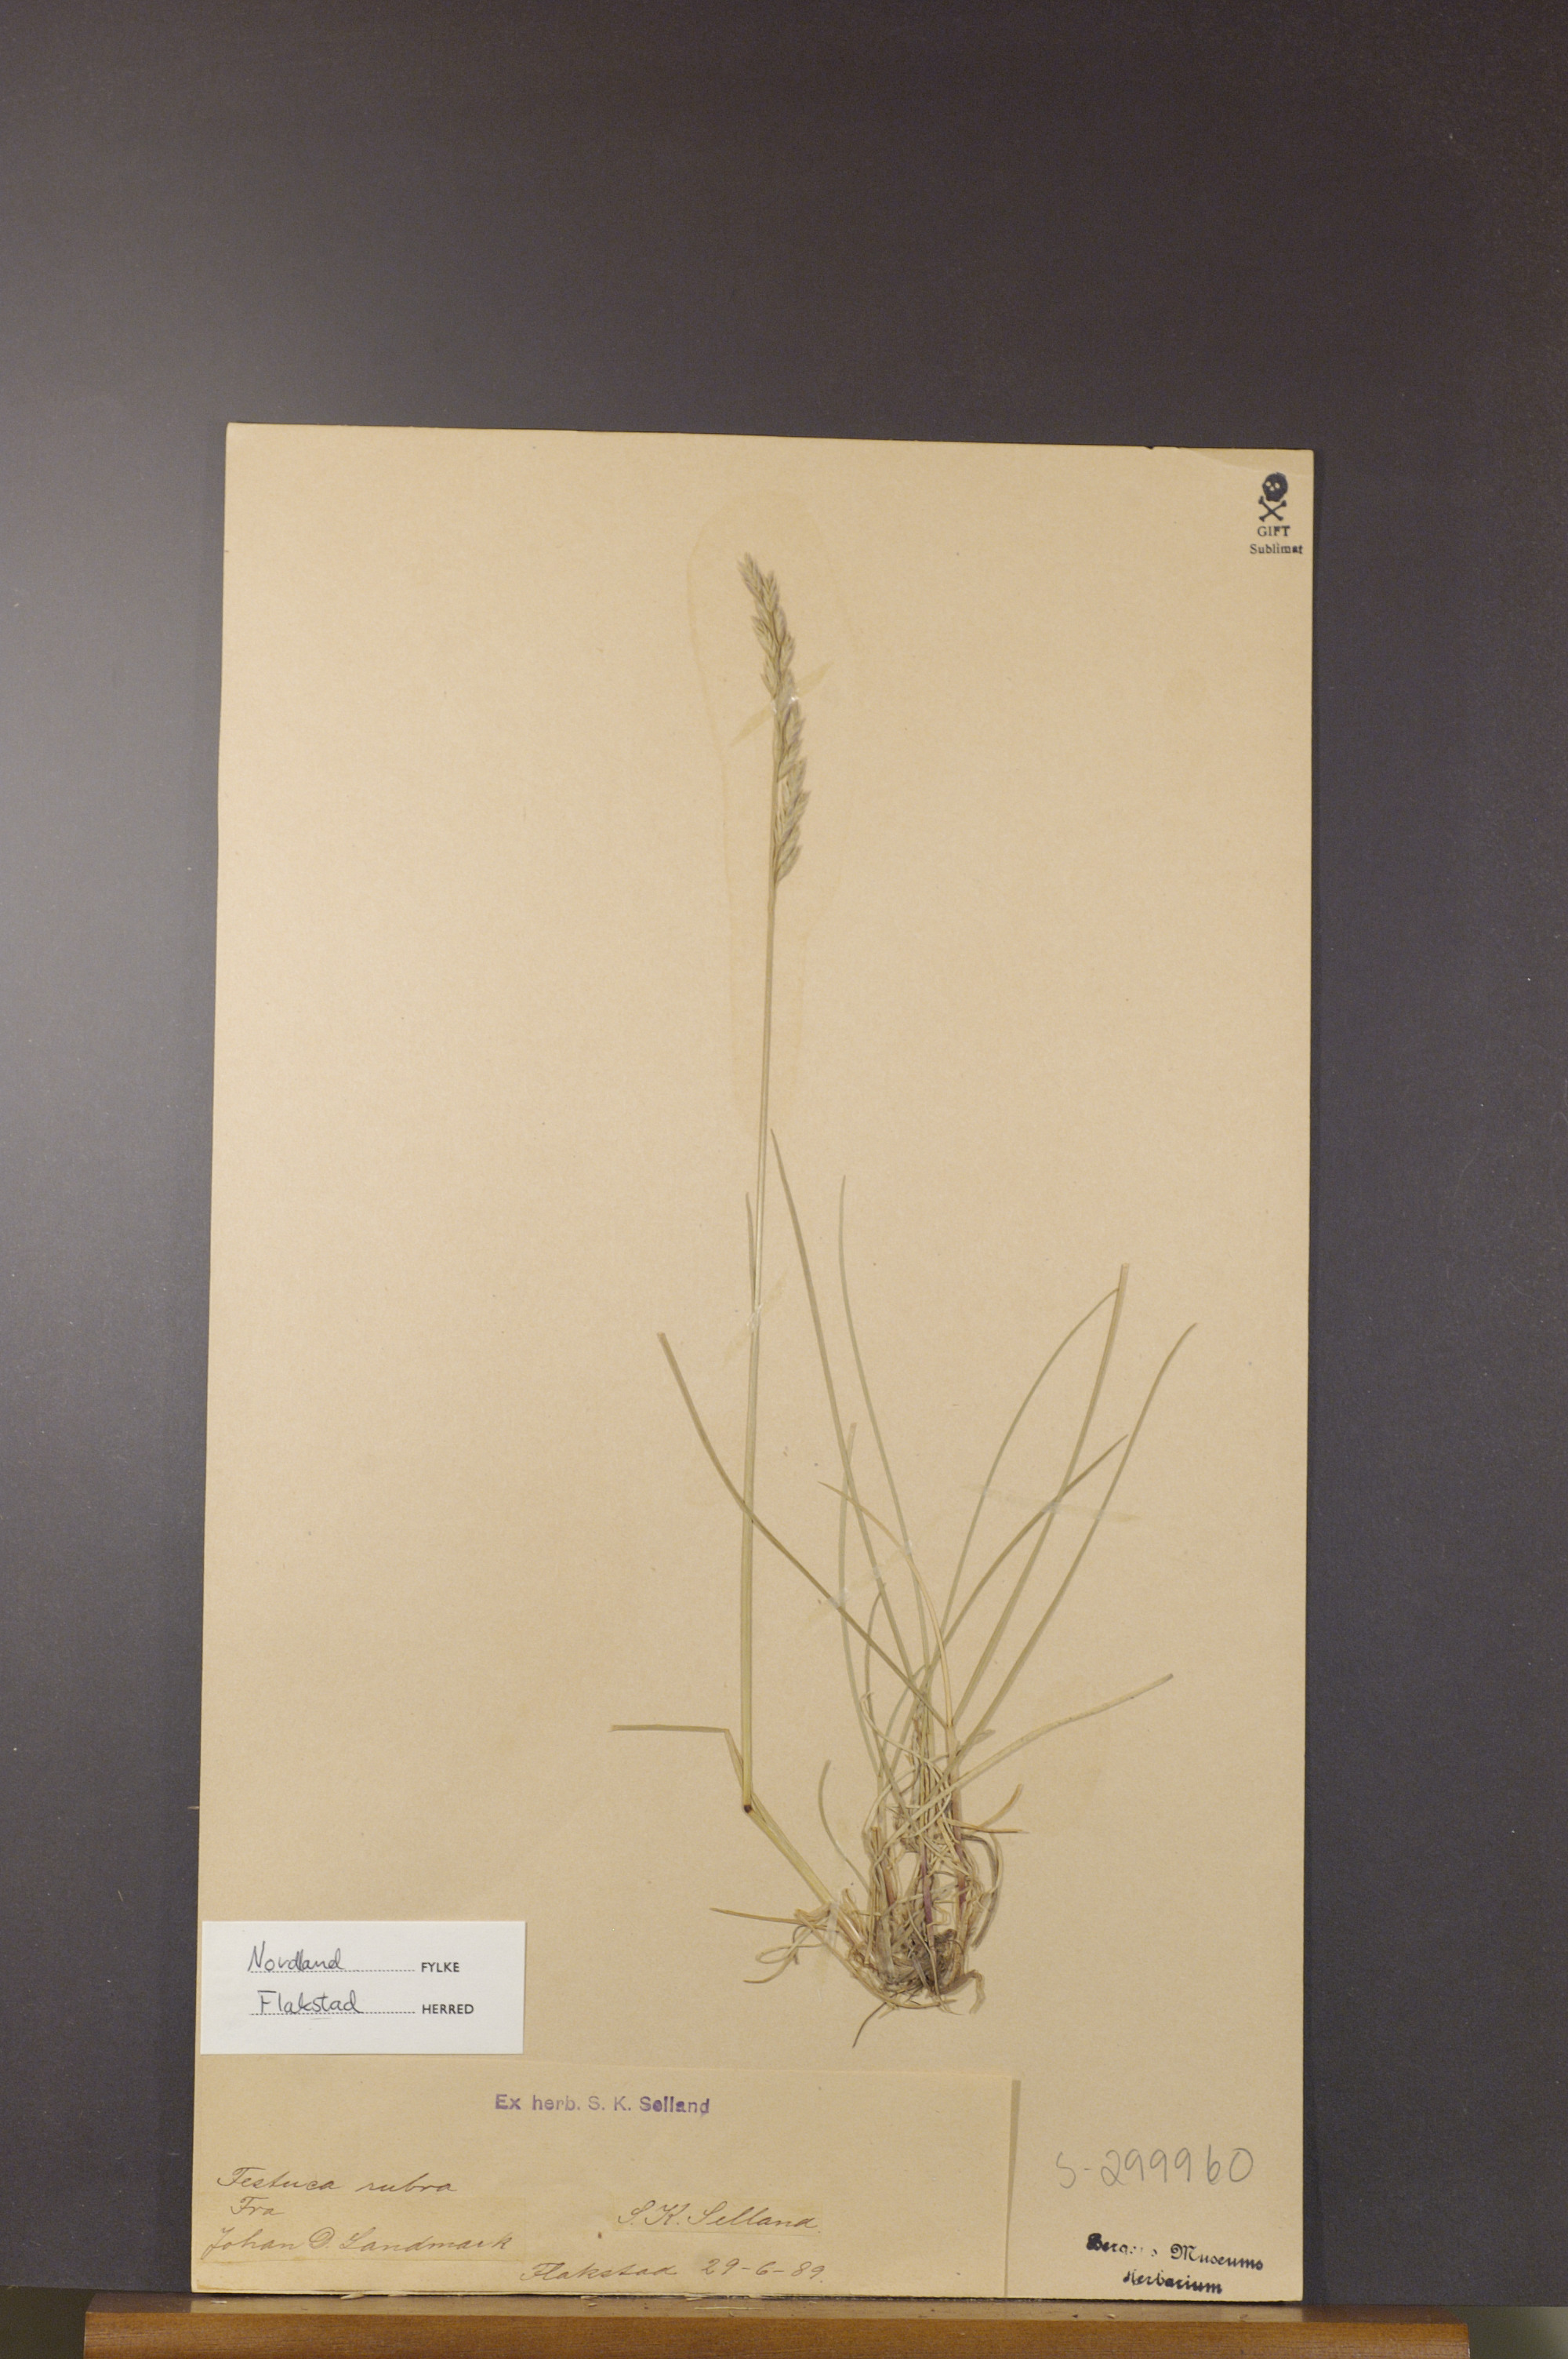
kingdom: Plantae
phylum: Tracheophyta
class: Liliopsida
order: Poales
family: Poaceae
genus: Festuca
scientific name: Festuca rubra
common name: Red fescue
